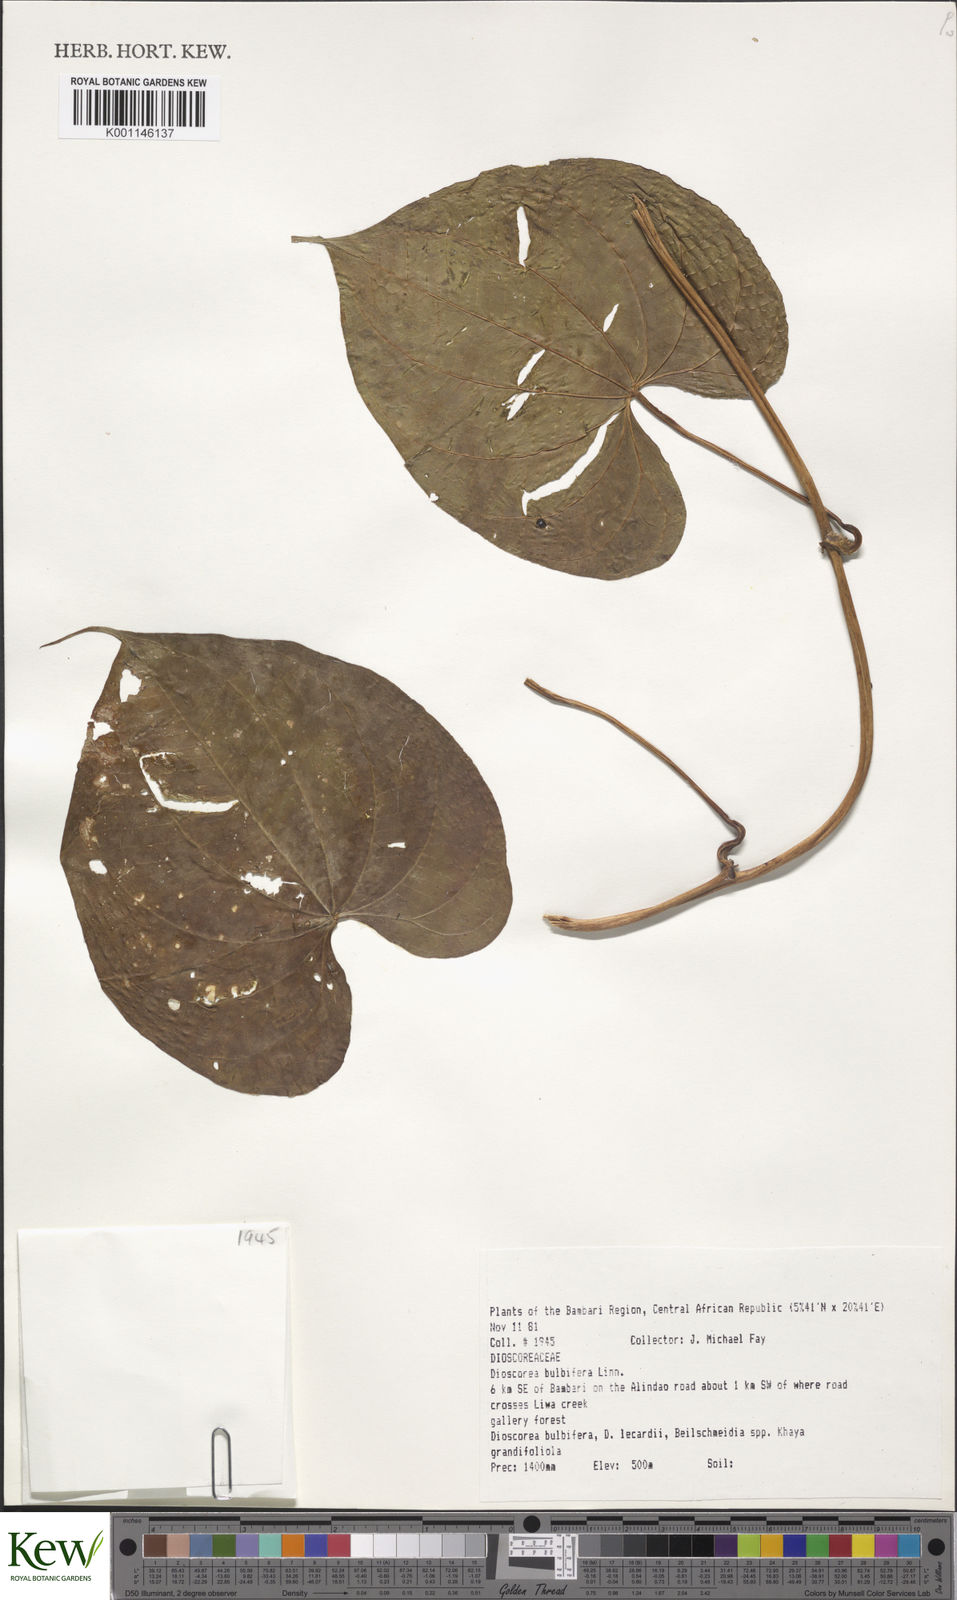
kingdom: Plantae
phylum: Tracheophyta
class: Liliopsida
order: Dioscoreales
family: Dioscoreaceae
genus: Dioscorea
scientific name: Dioscorea bulbifera
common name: Air yam
